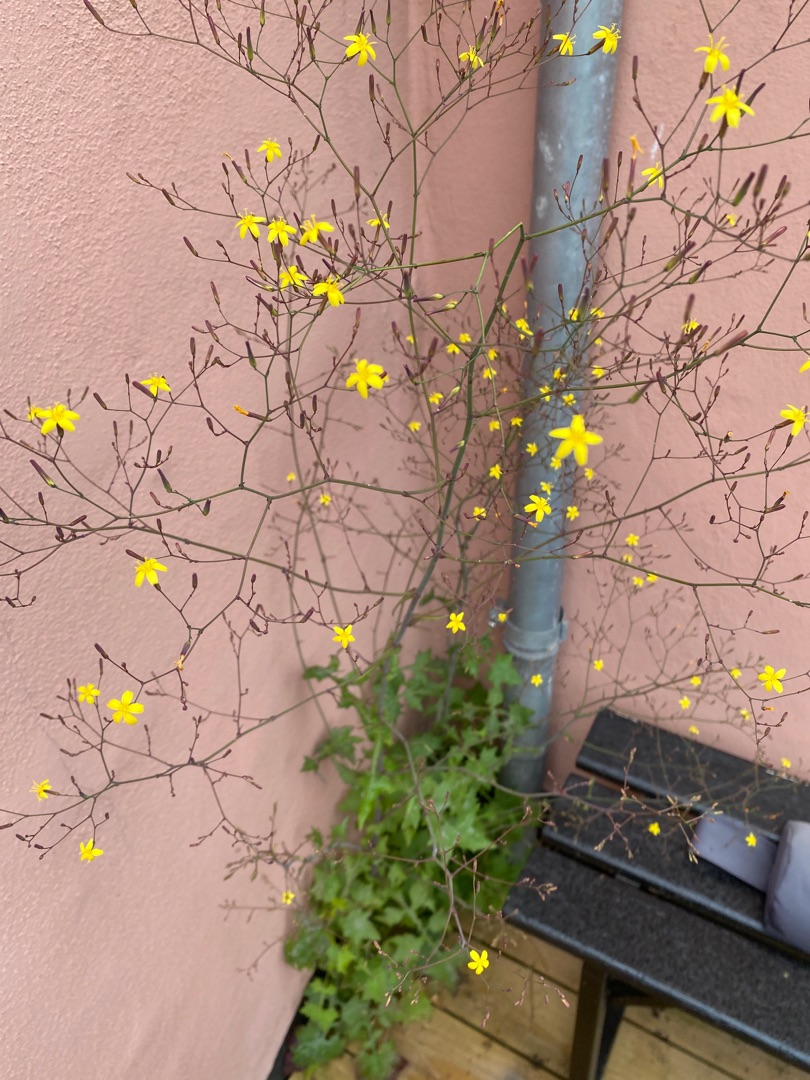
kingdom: Plantae
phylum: Tracheophyta
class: Magnoliopsida
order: Asterales
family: Asteraceae
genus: Mycelis
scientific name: Mycelis muralis
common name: Skov-salat
